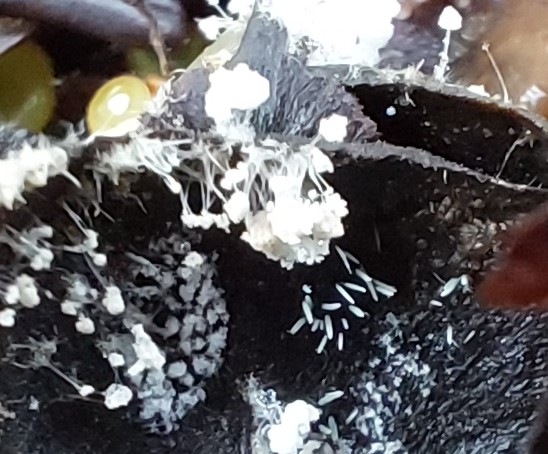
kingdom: Fungi
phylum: Ascomycota
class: Sordariomycetes
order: Microascales
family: Microascaceae
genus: Cephalotrichum
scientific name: Cephalotrichum stemonitis
